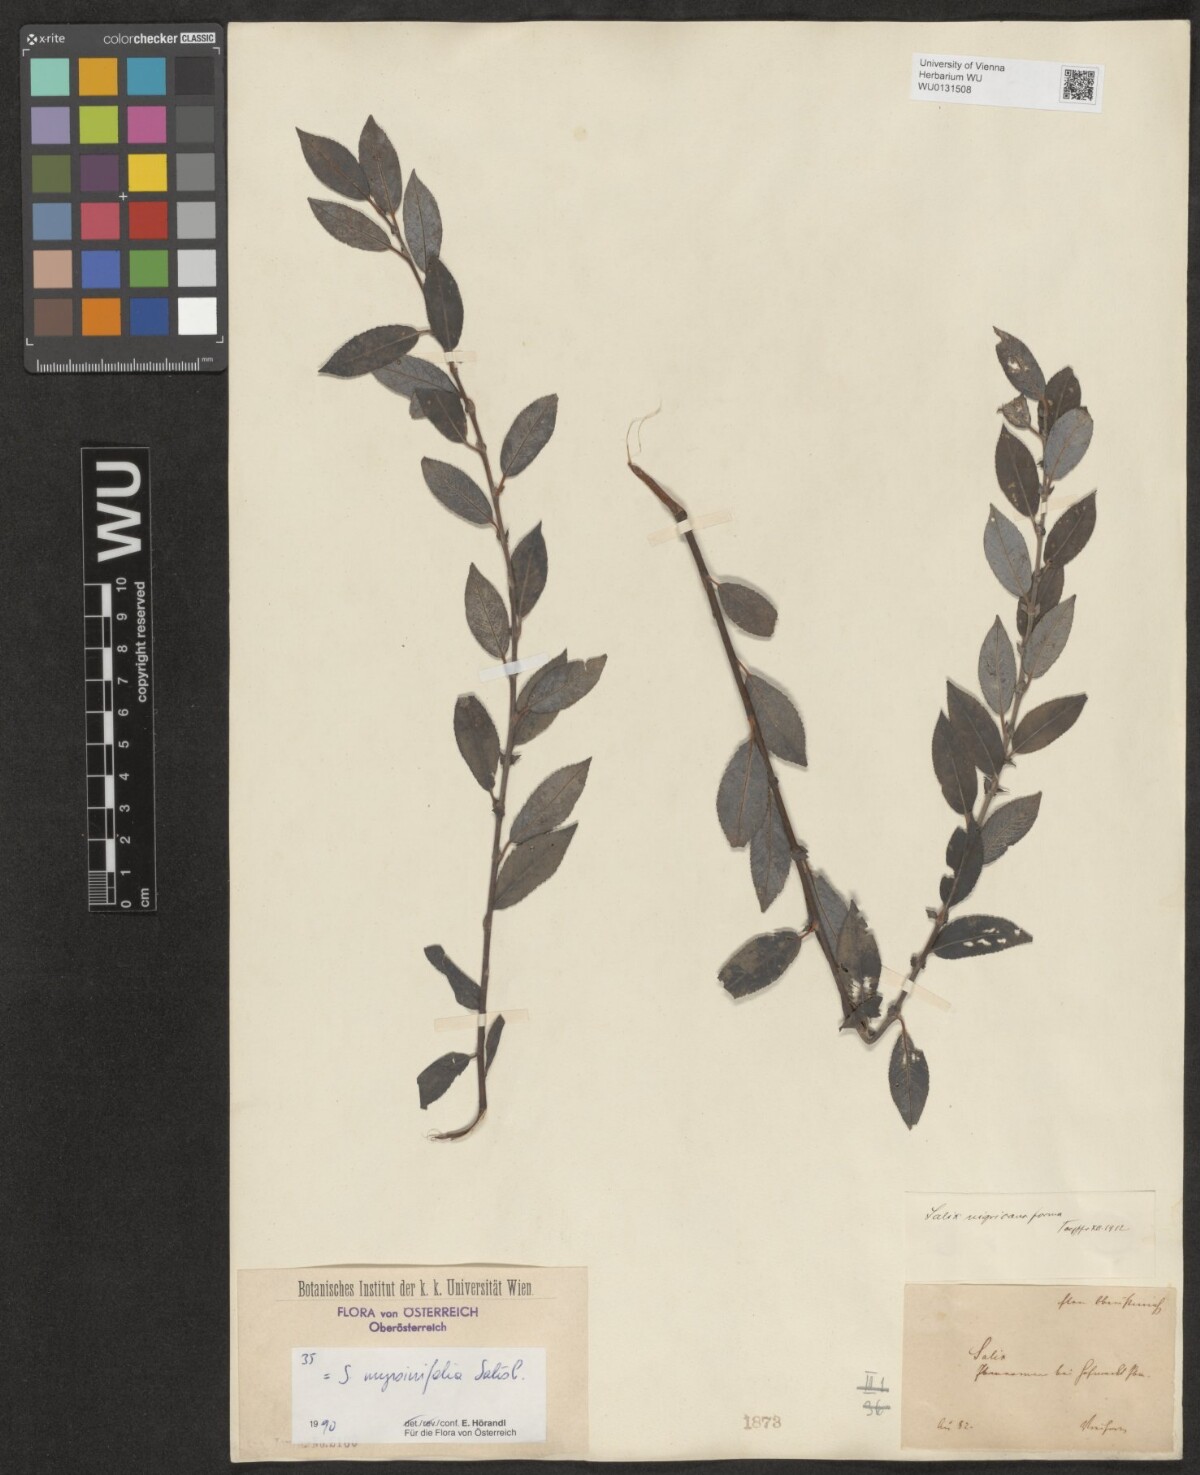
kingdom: Plantae
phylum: Tracheophyta
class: Magnoliopsida
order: Malpighiales
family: Salicaceae
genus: Salix
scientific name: Salix myrsinifolia
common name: Dark-leaved willow
